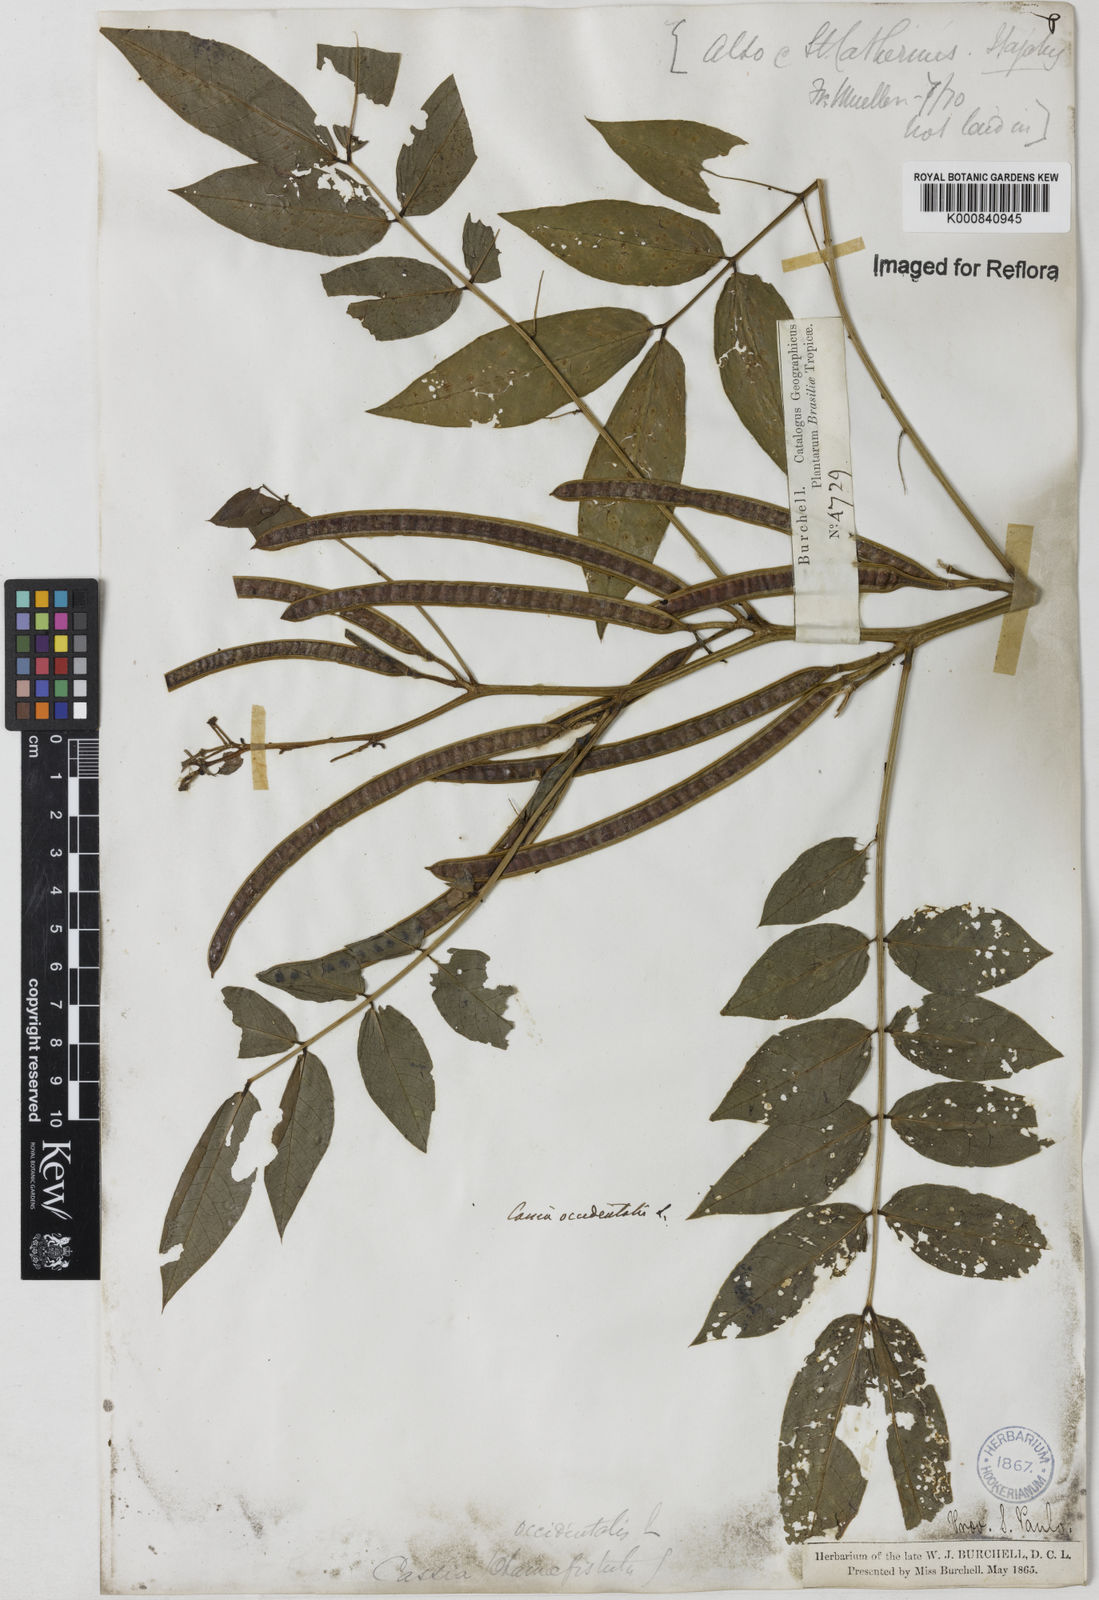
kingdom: Plantae
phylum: Tracheophyta
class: Magnoliopsida
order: Fabales
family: Fabaceae
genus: Senna
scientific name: Senna occidentalis
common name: Septicweed
